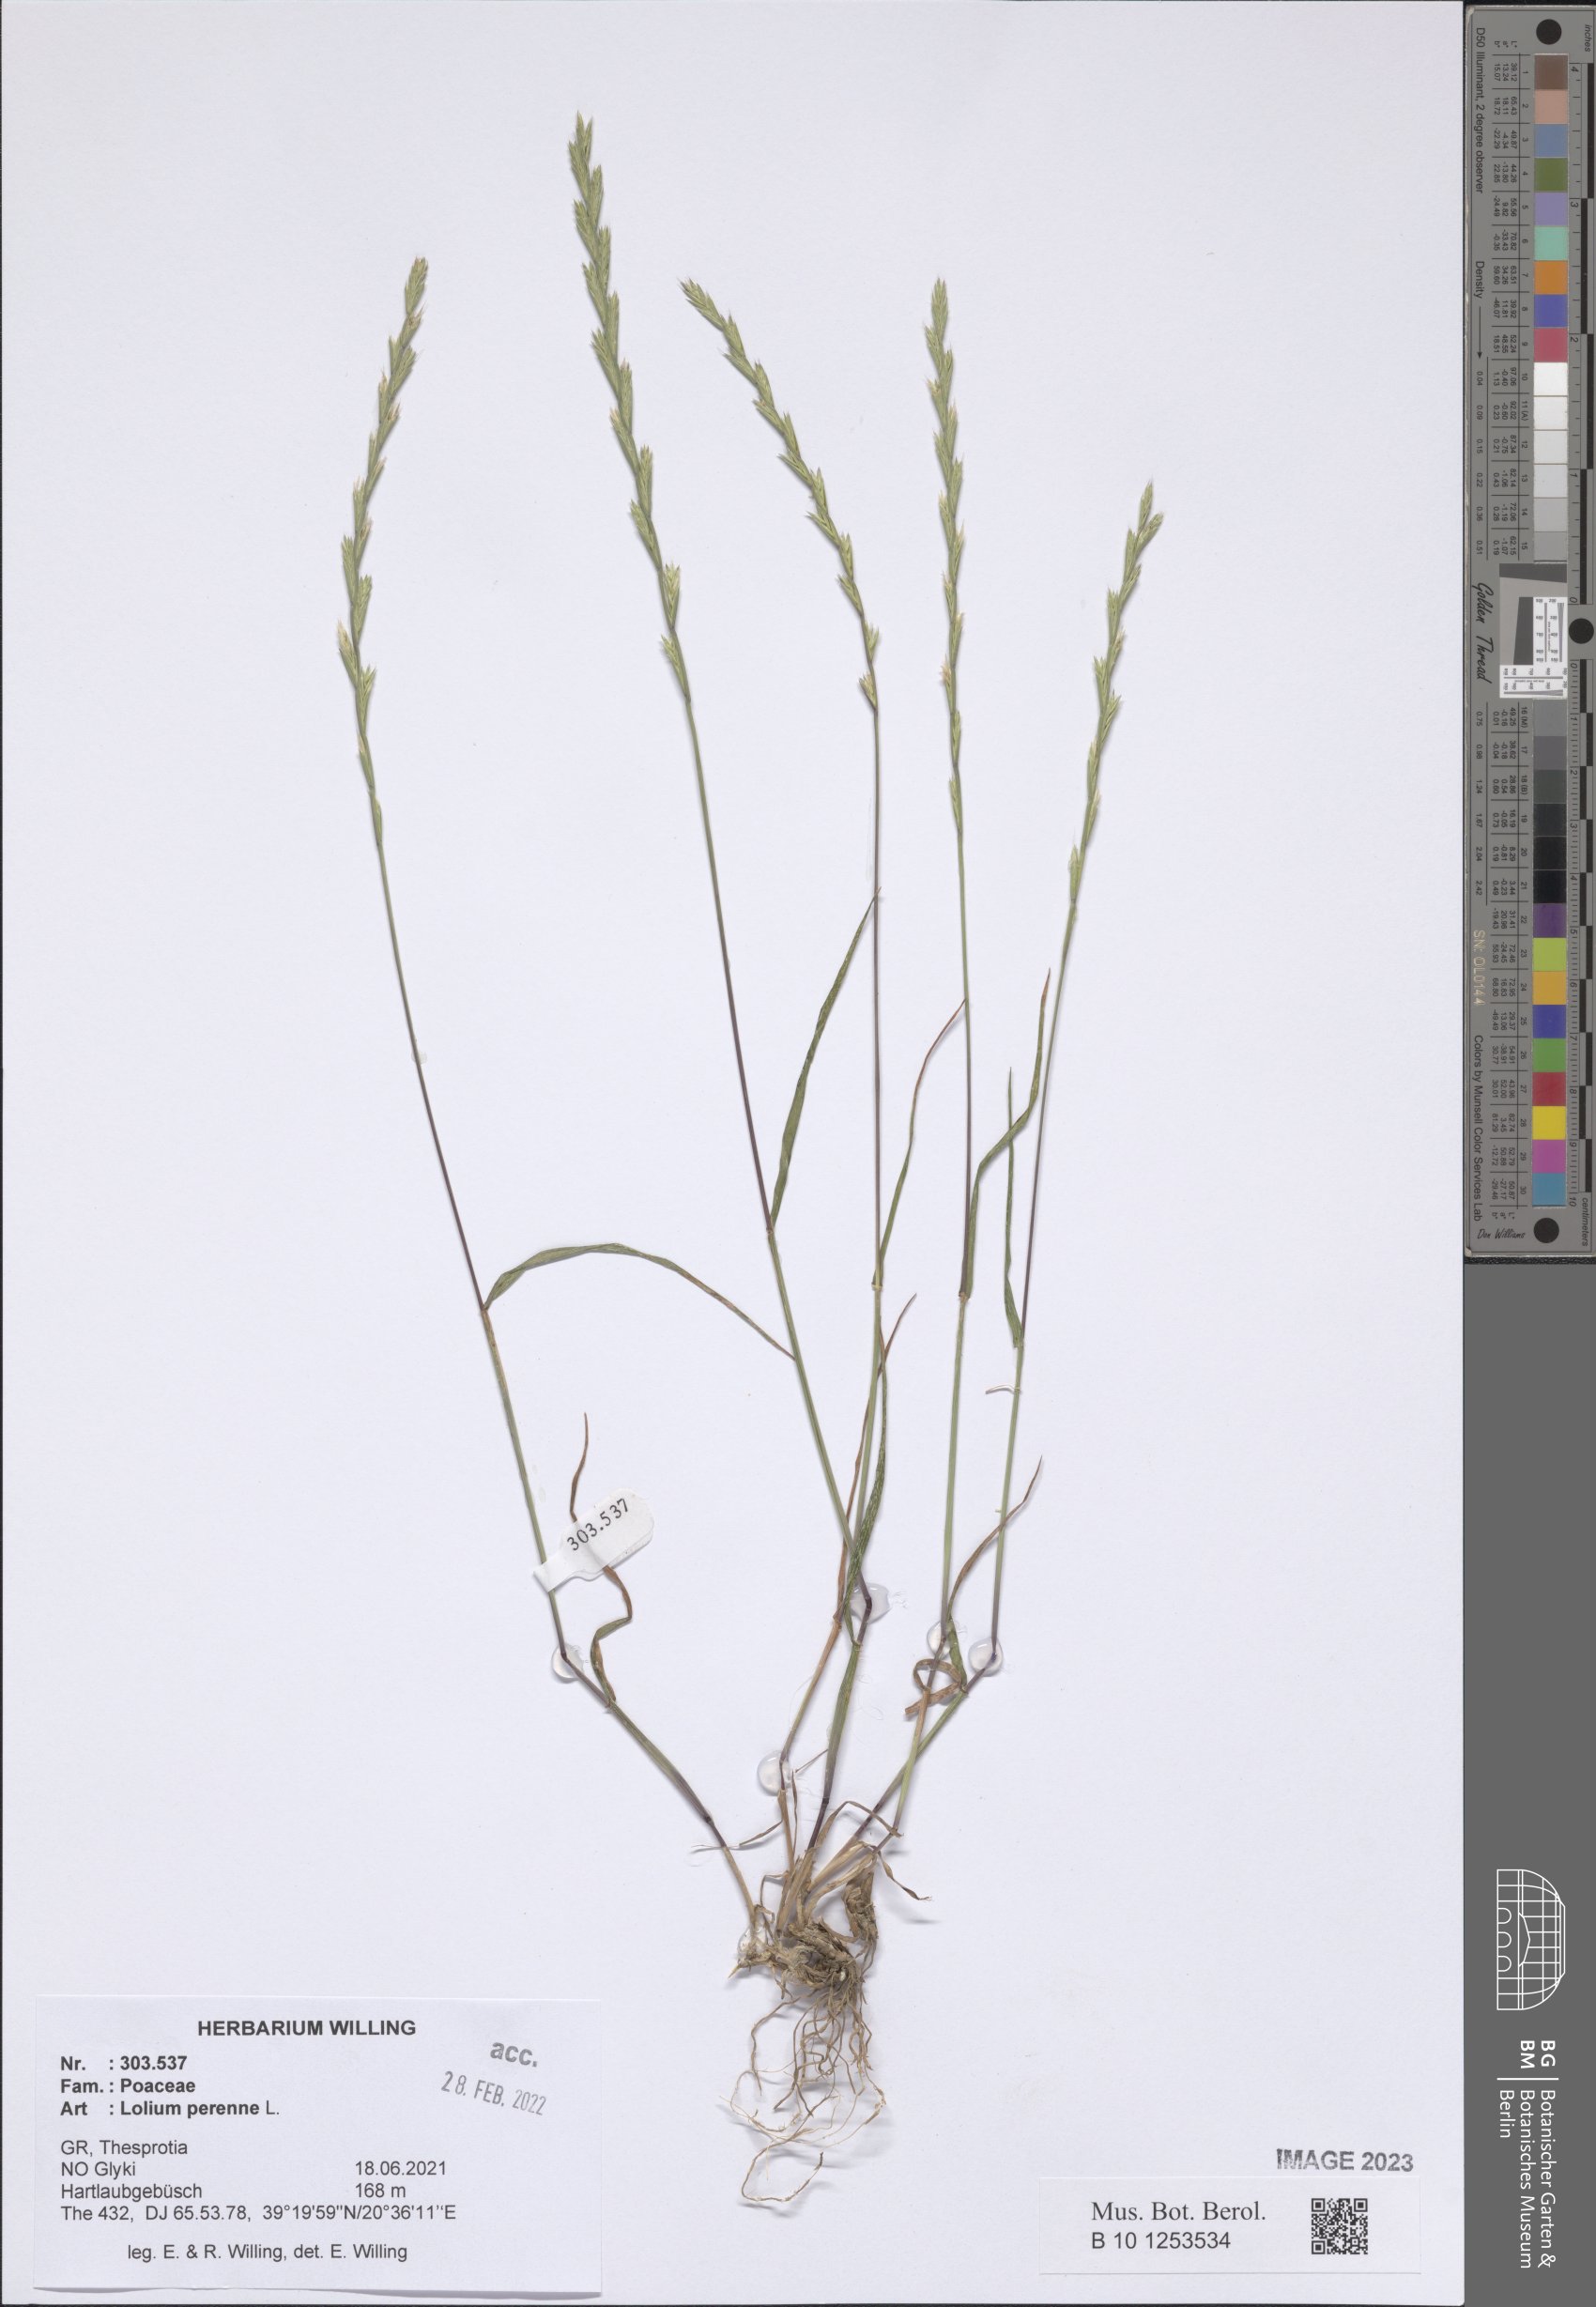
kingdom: Plantae
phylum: Tracheophyta
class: Liliopsida
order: Poales
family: Poaceae
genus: Lolium
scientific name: Lolium perenne
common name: Perennial ryegrass
